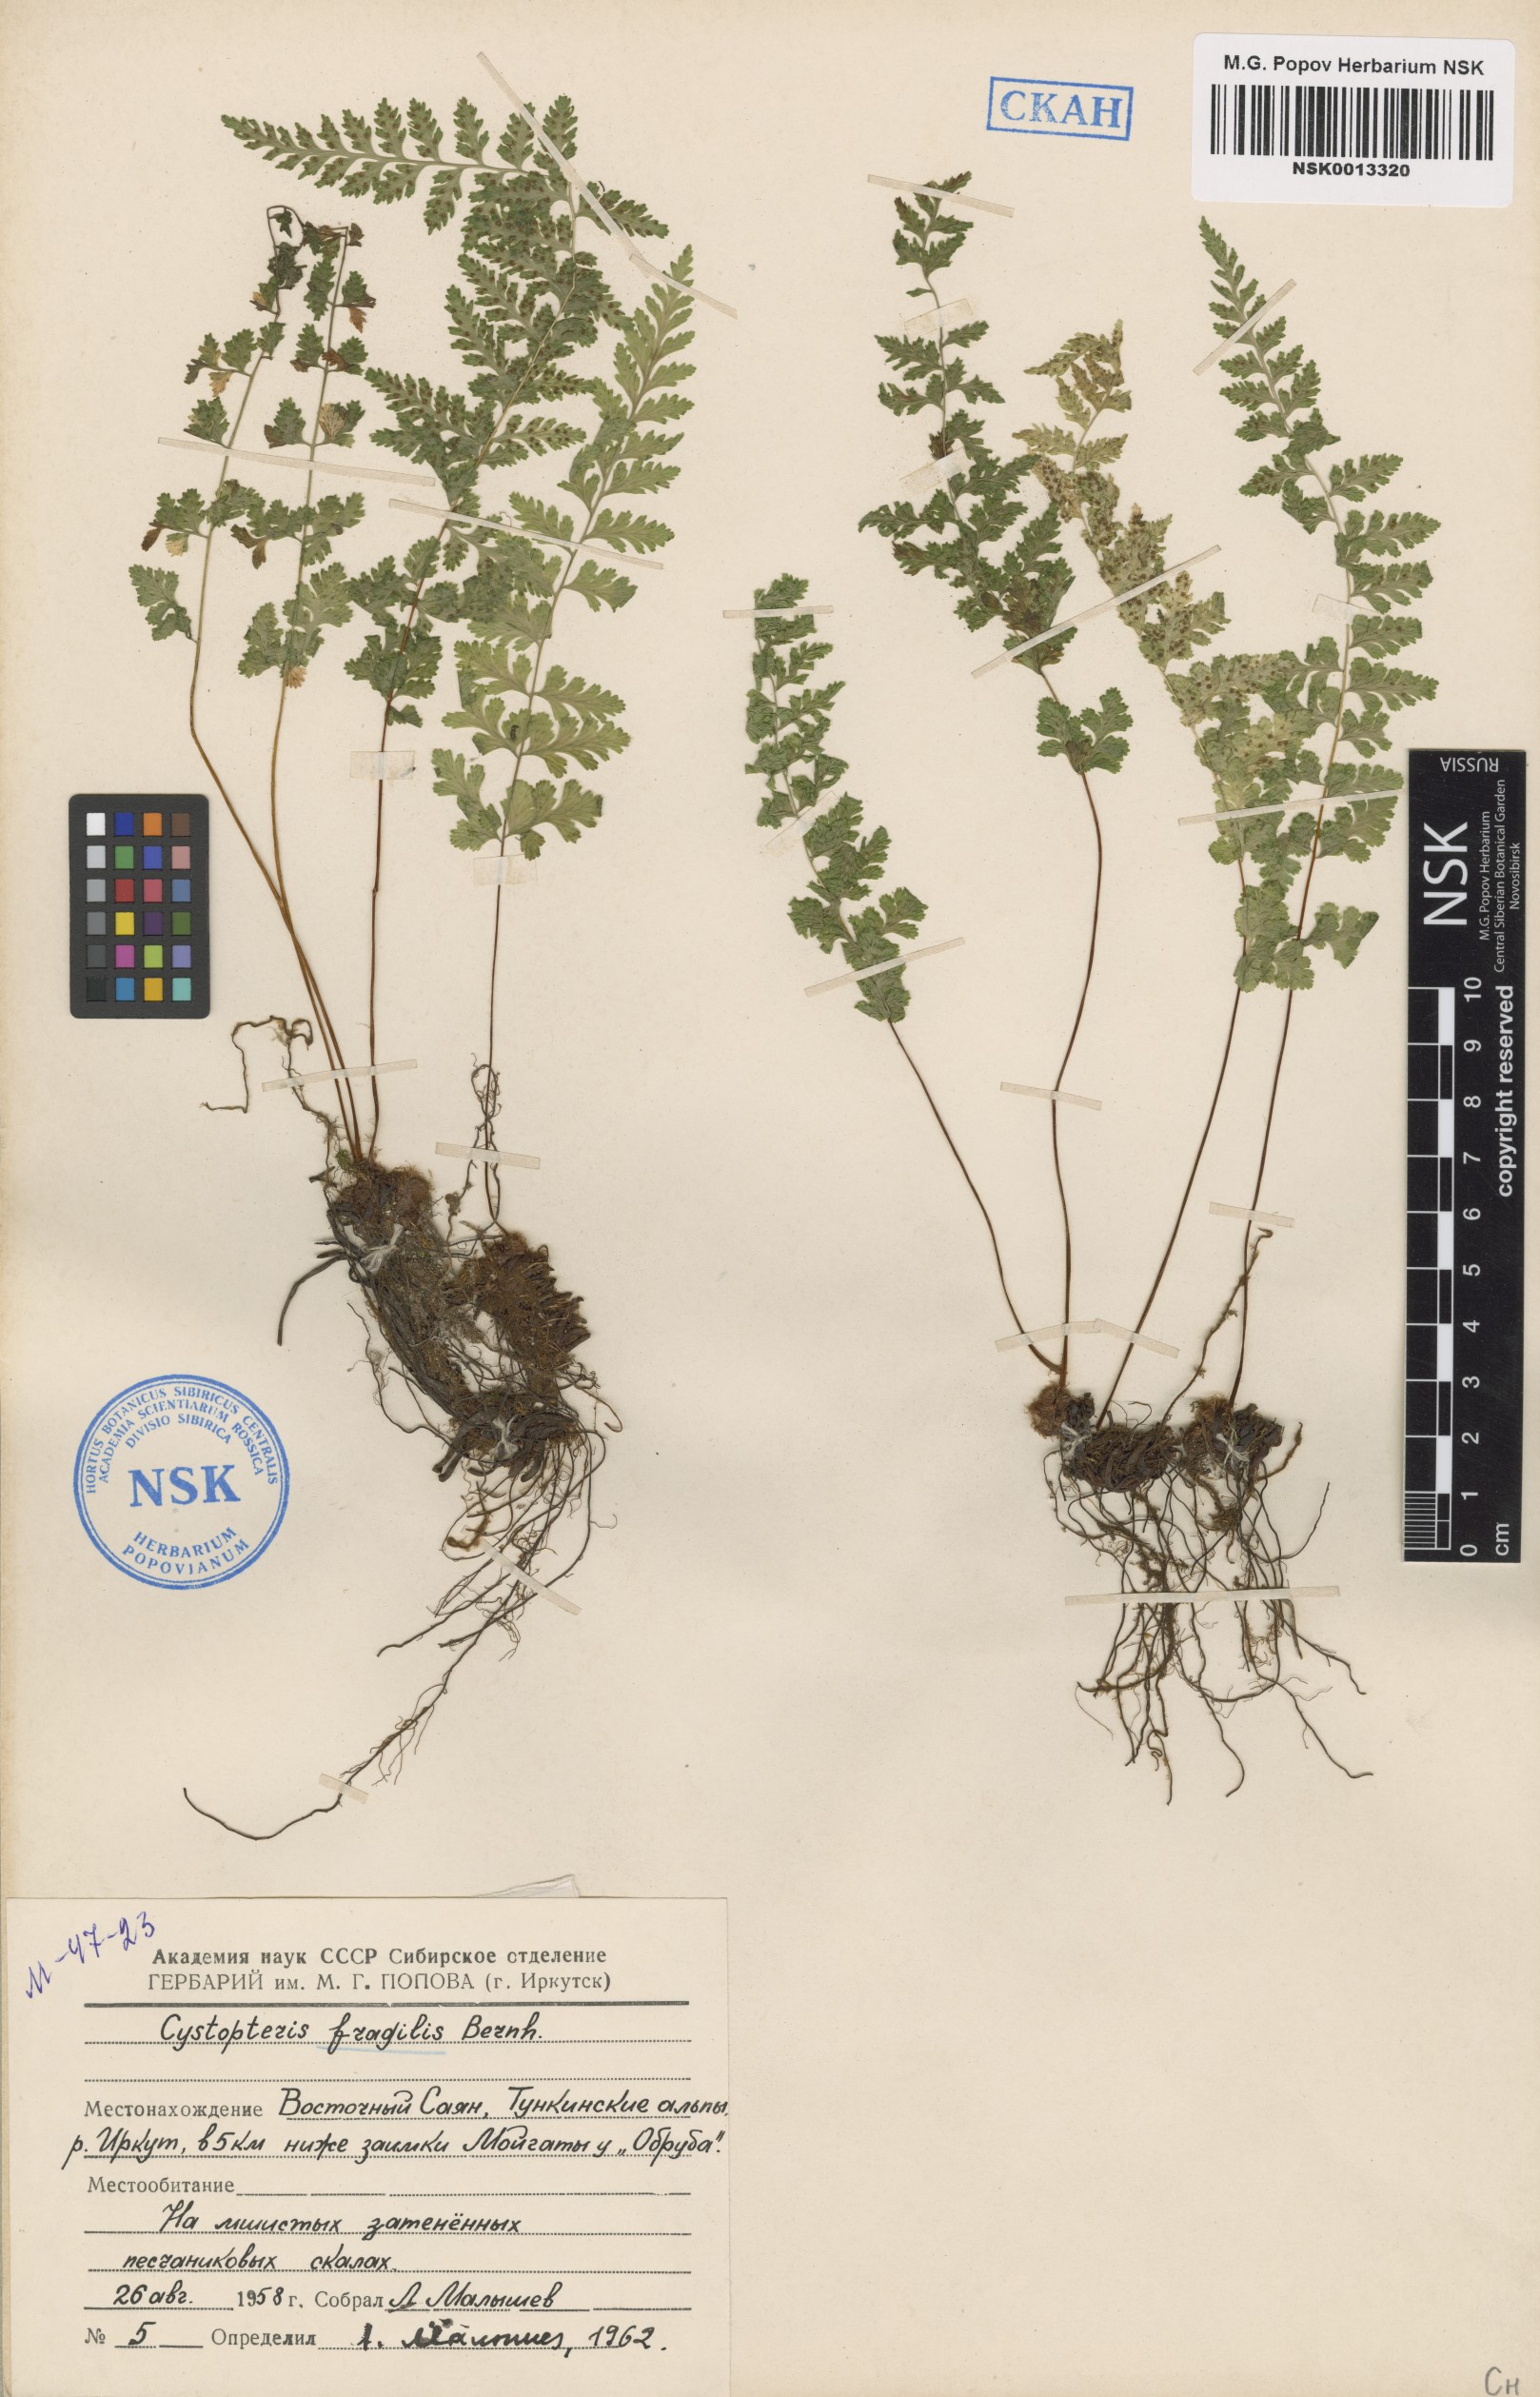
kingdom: Plantae
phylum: Tracheophyta
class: Polypodiopsida
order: Polypodiales
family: Cystopteridaceae
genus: Cystopteris
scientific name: Cystopteris fragilis
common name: Brittle bladder fern
